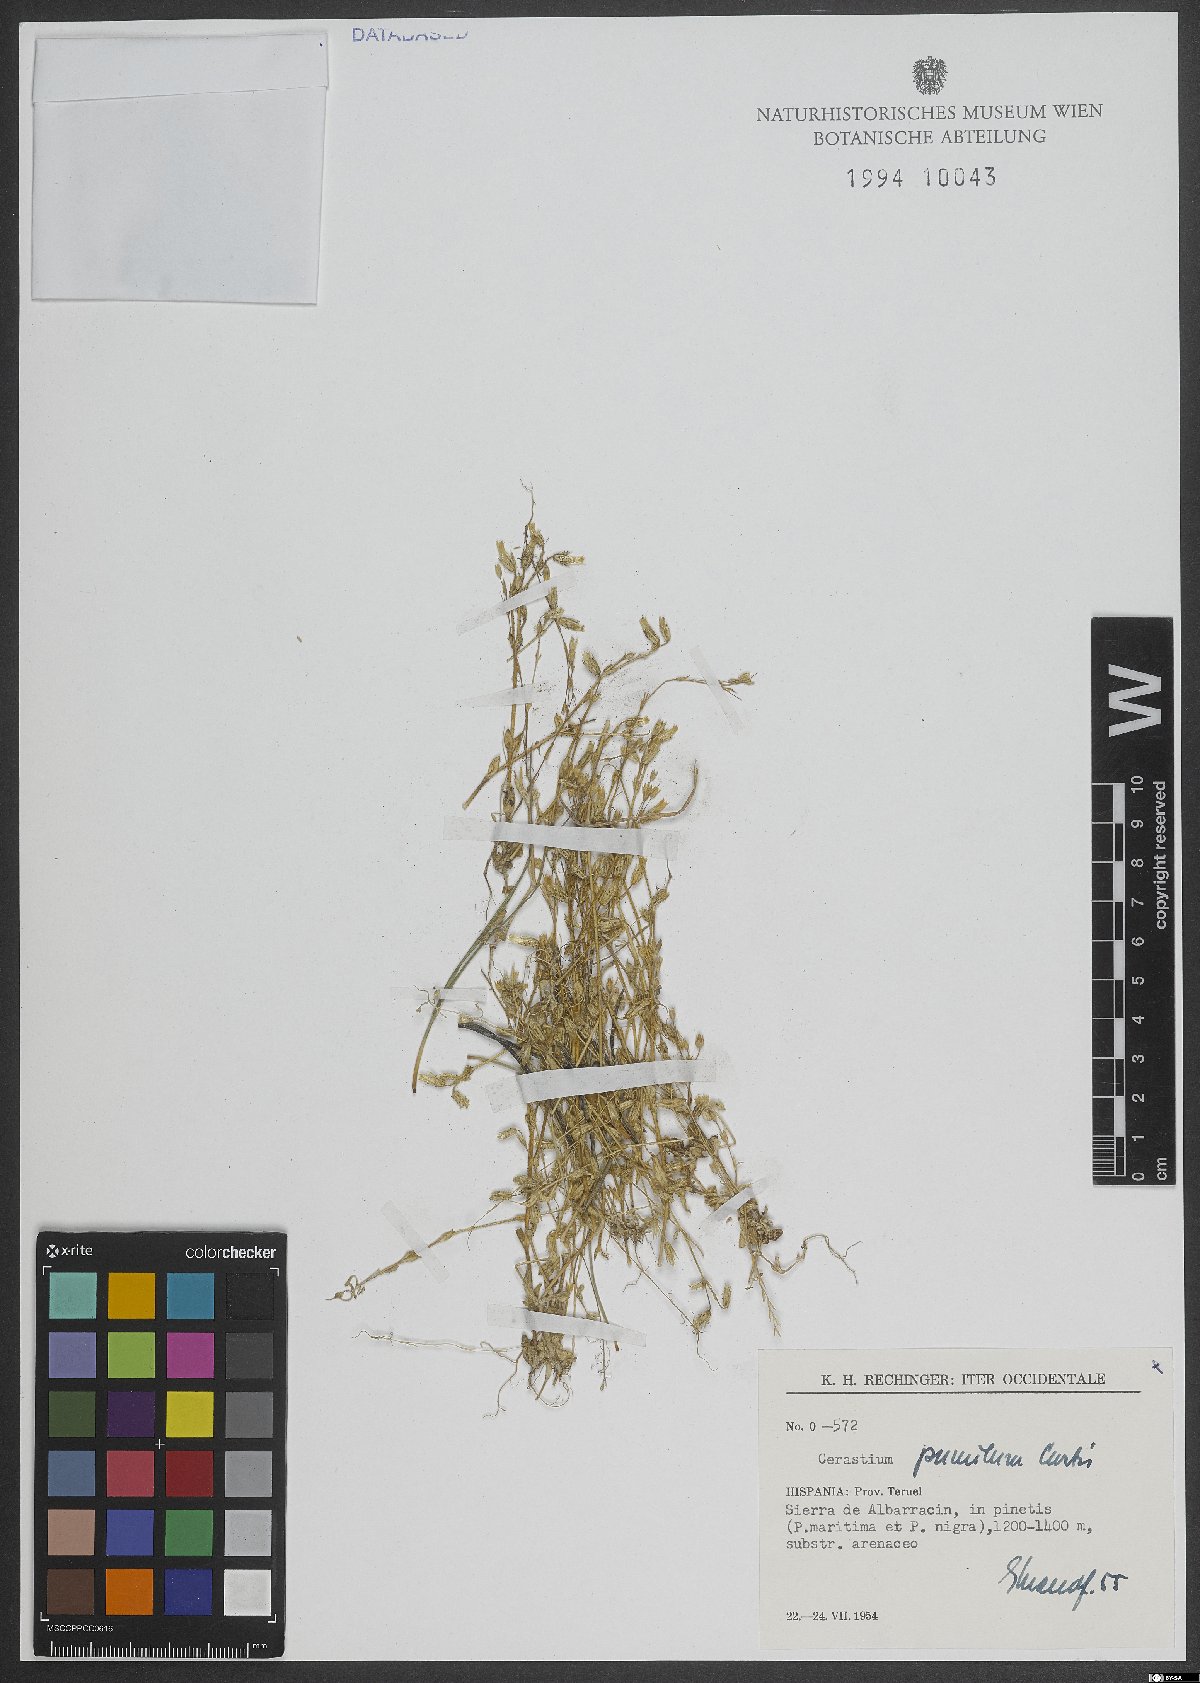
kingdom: Plantae
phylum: Tracheophyta
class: Magnoliopsida
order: Caryophyllales
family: Caryophyllaceae
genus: Cerastium
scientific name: Cerastium pumilum
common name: Dwarf mouse-ear
